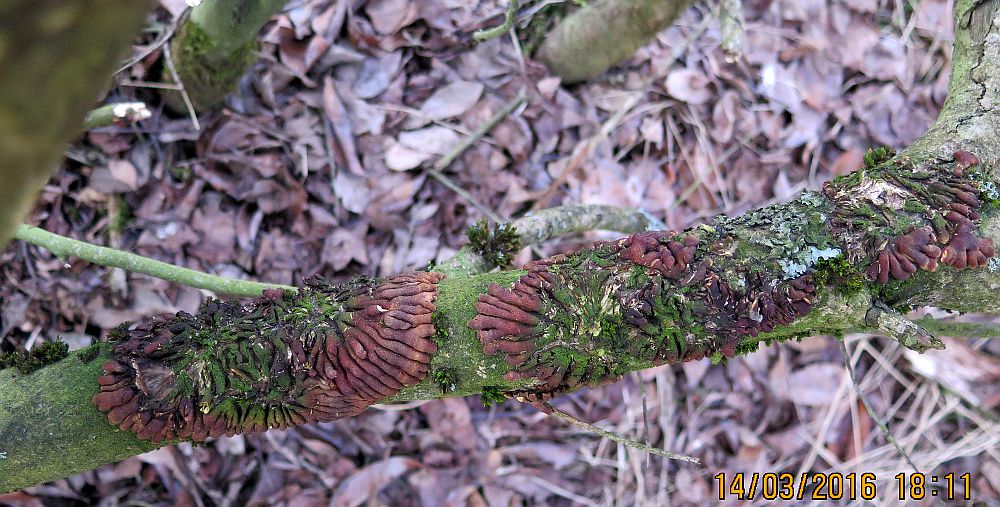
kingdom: Fungi
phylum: Ascomycota
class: Sordariomycetes
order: Hypocreales
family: Hypocreaceae
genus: Hypocreopsis
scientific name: Hypocreopsis lichenoides
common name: pilfinger
